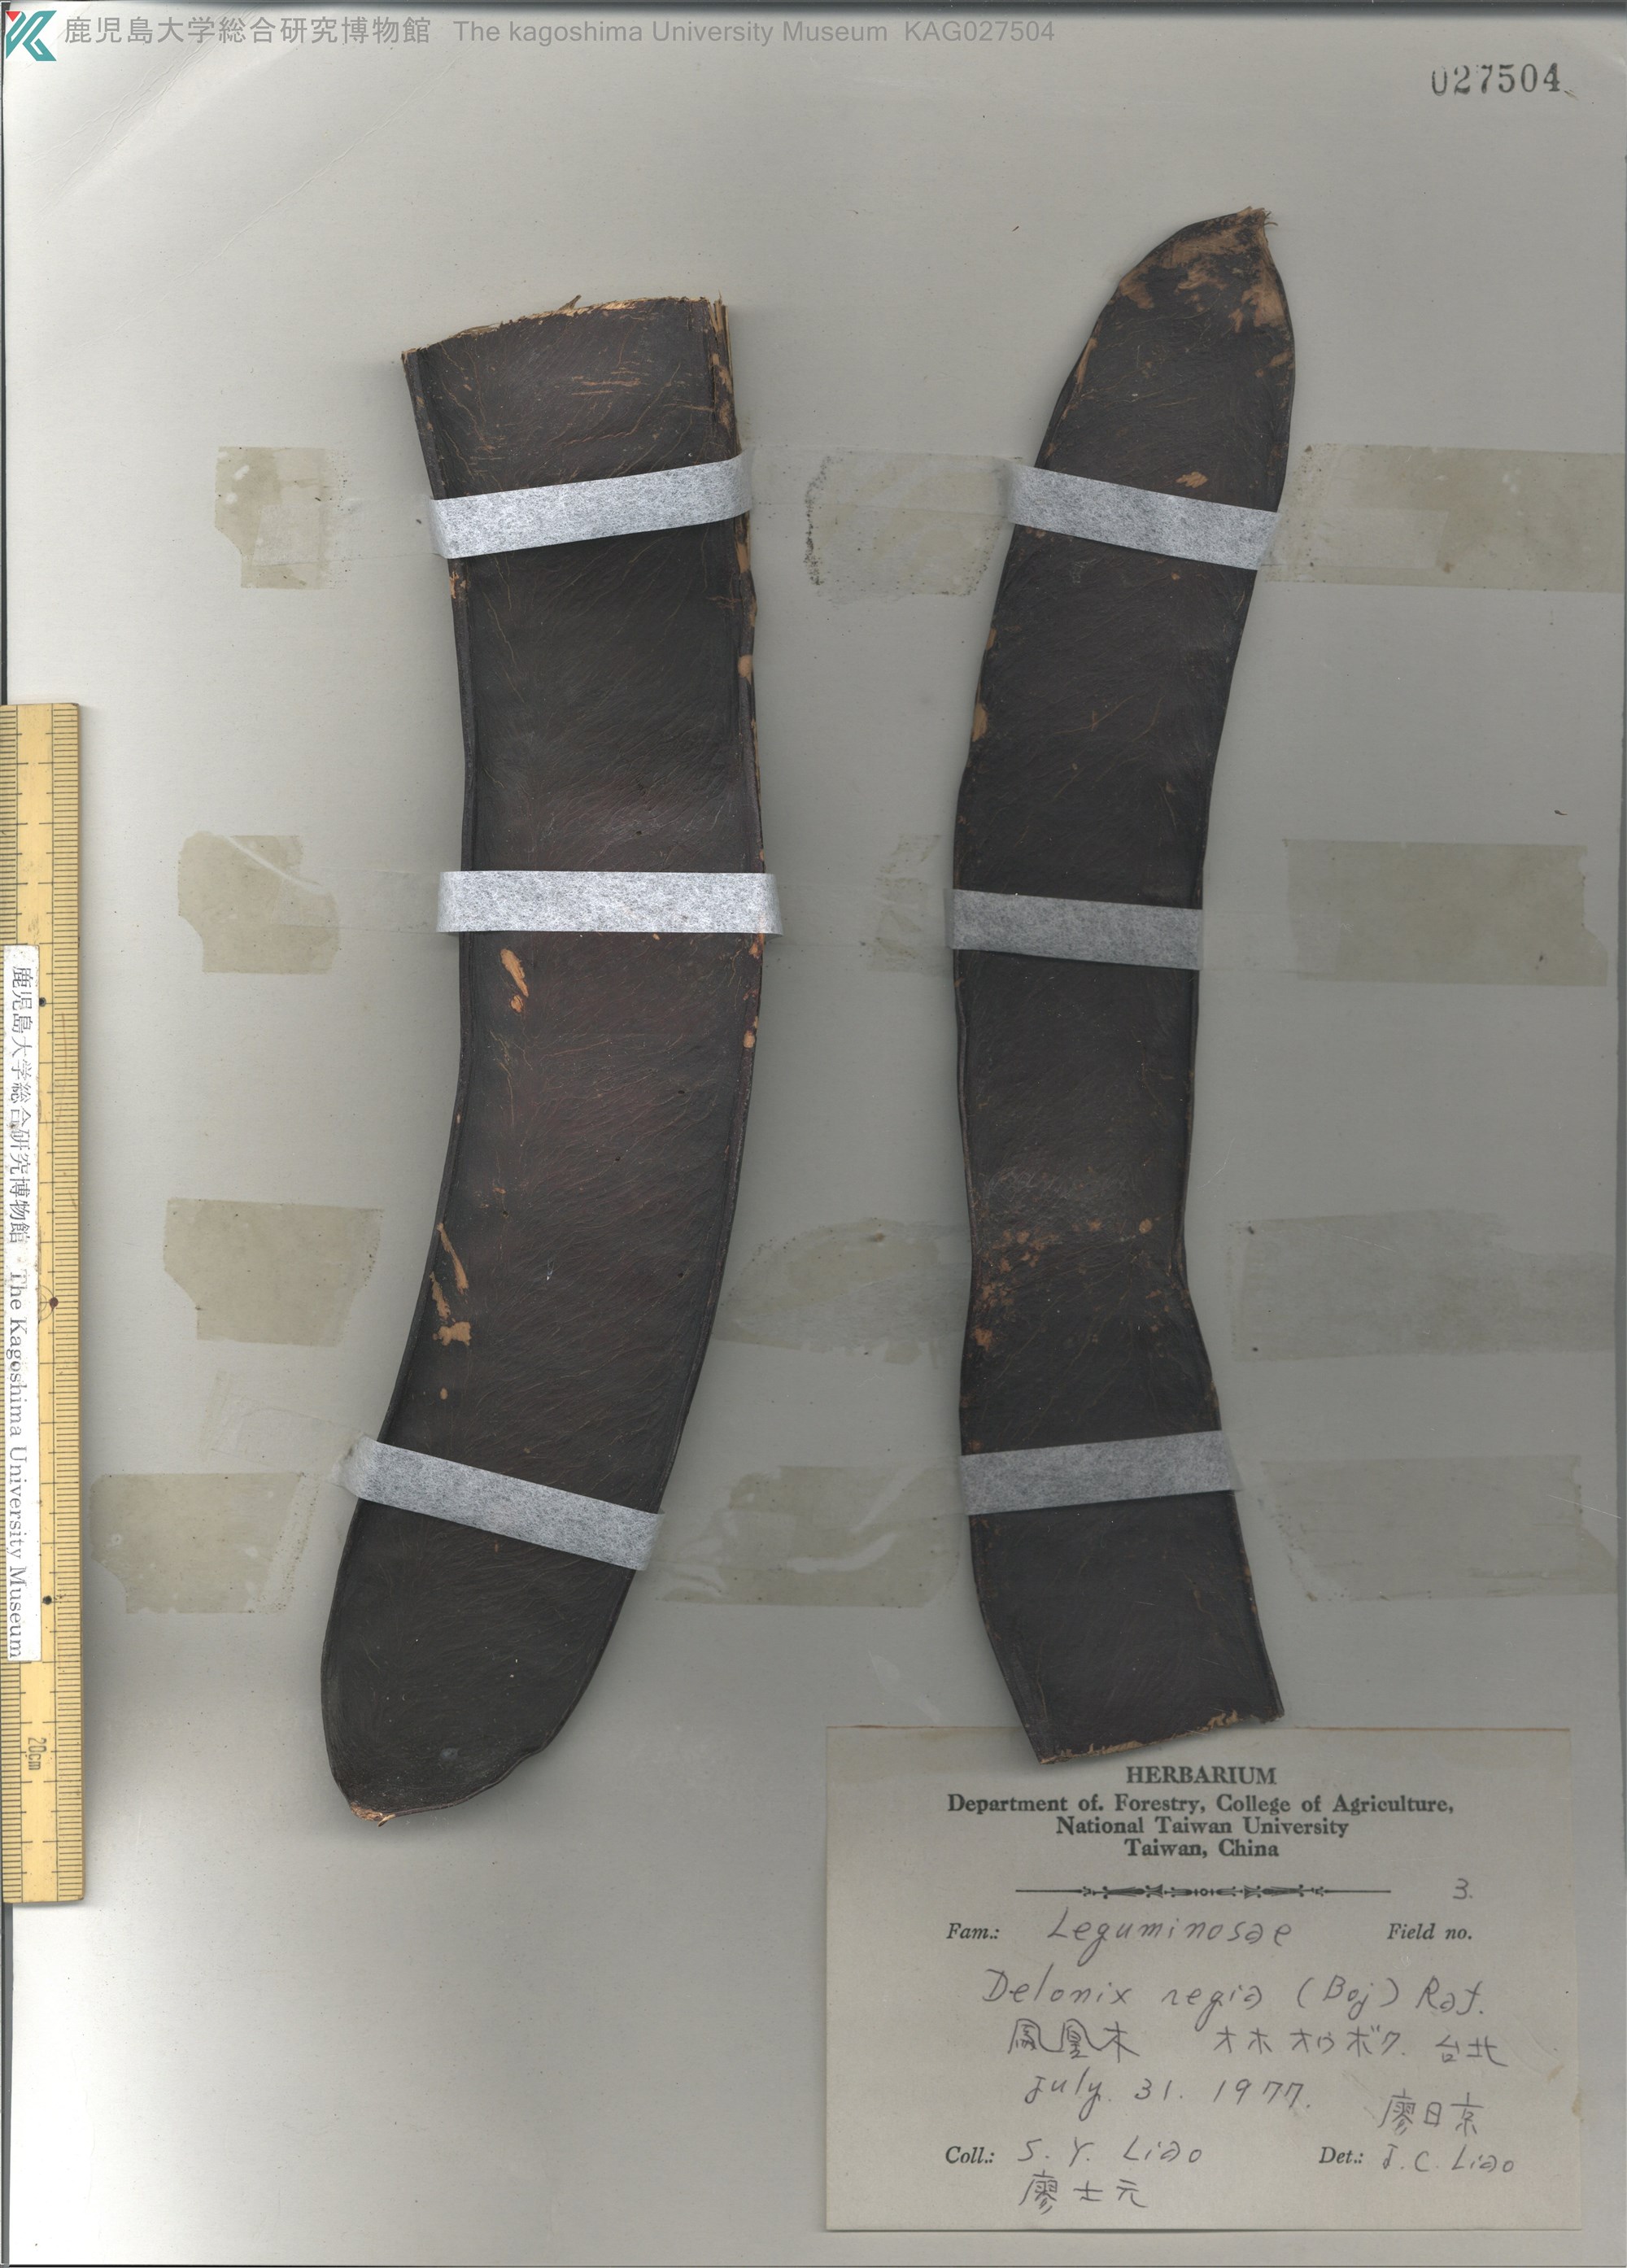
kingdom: Plantae
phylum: Tracheophyta
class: Magnoliopsida
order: Fabales
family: Fabaceae
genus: Delonix
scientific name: Delonix regia
